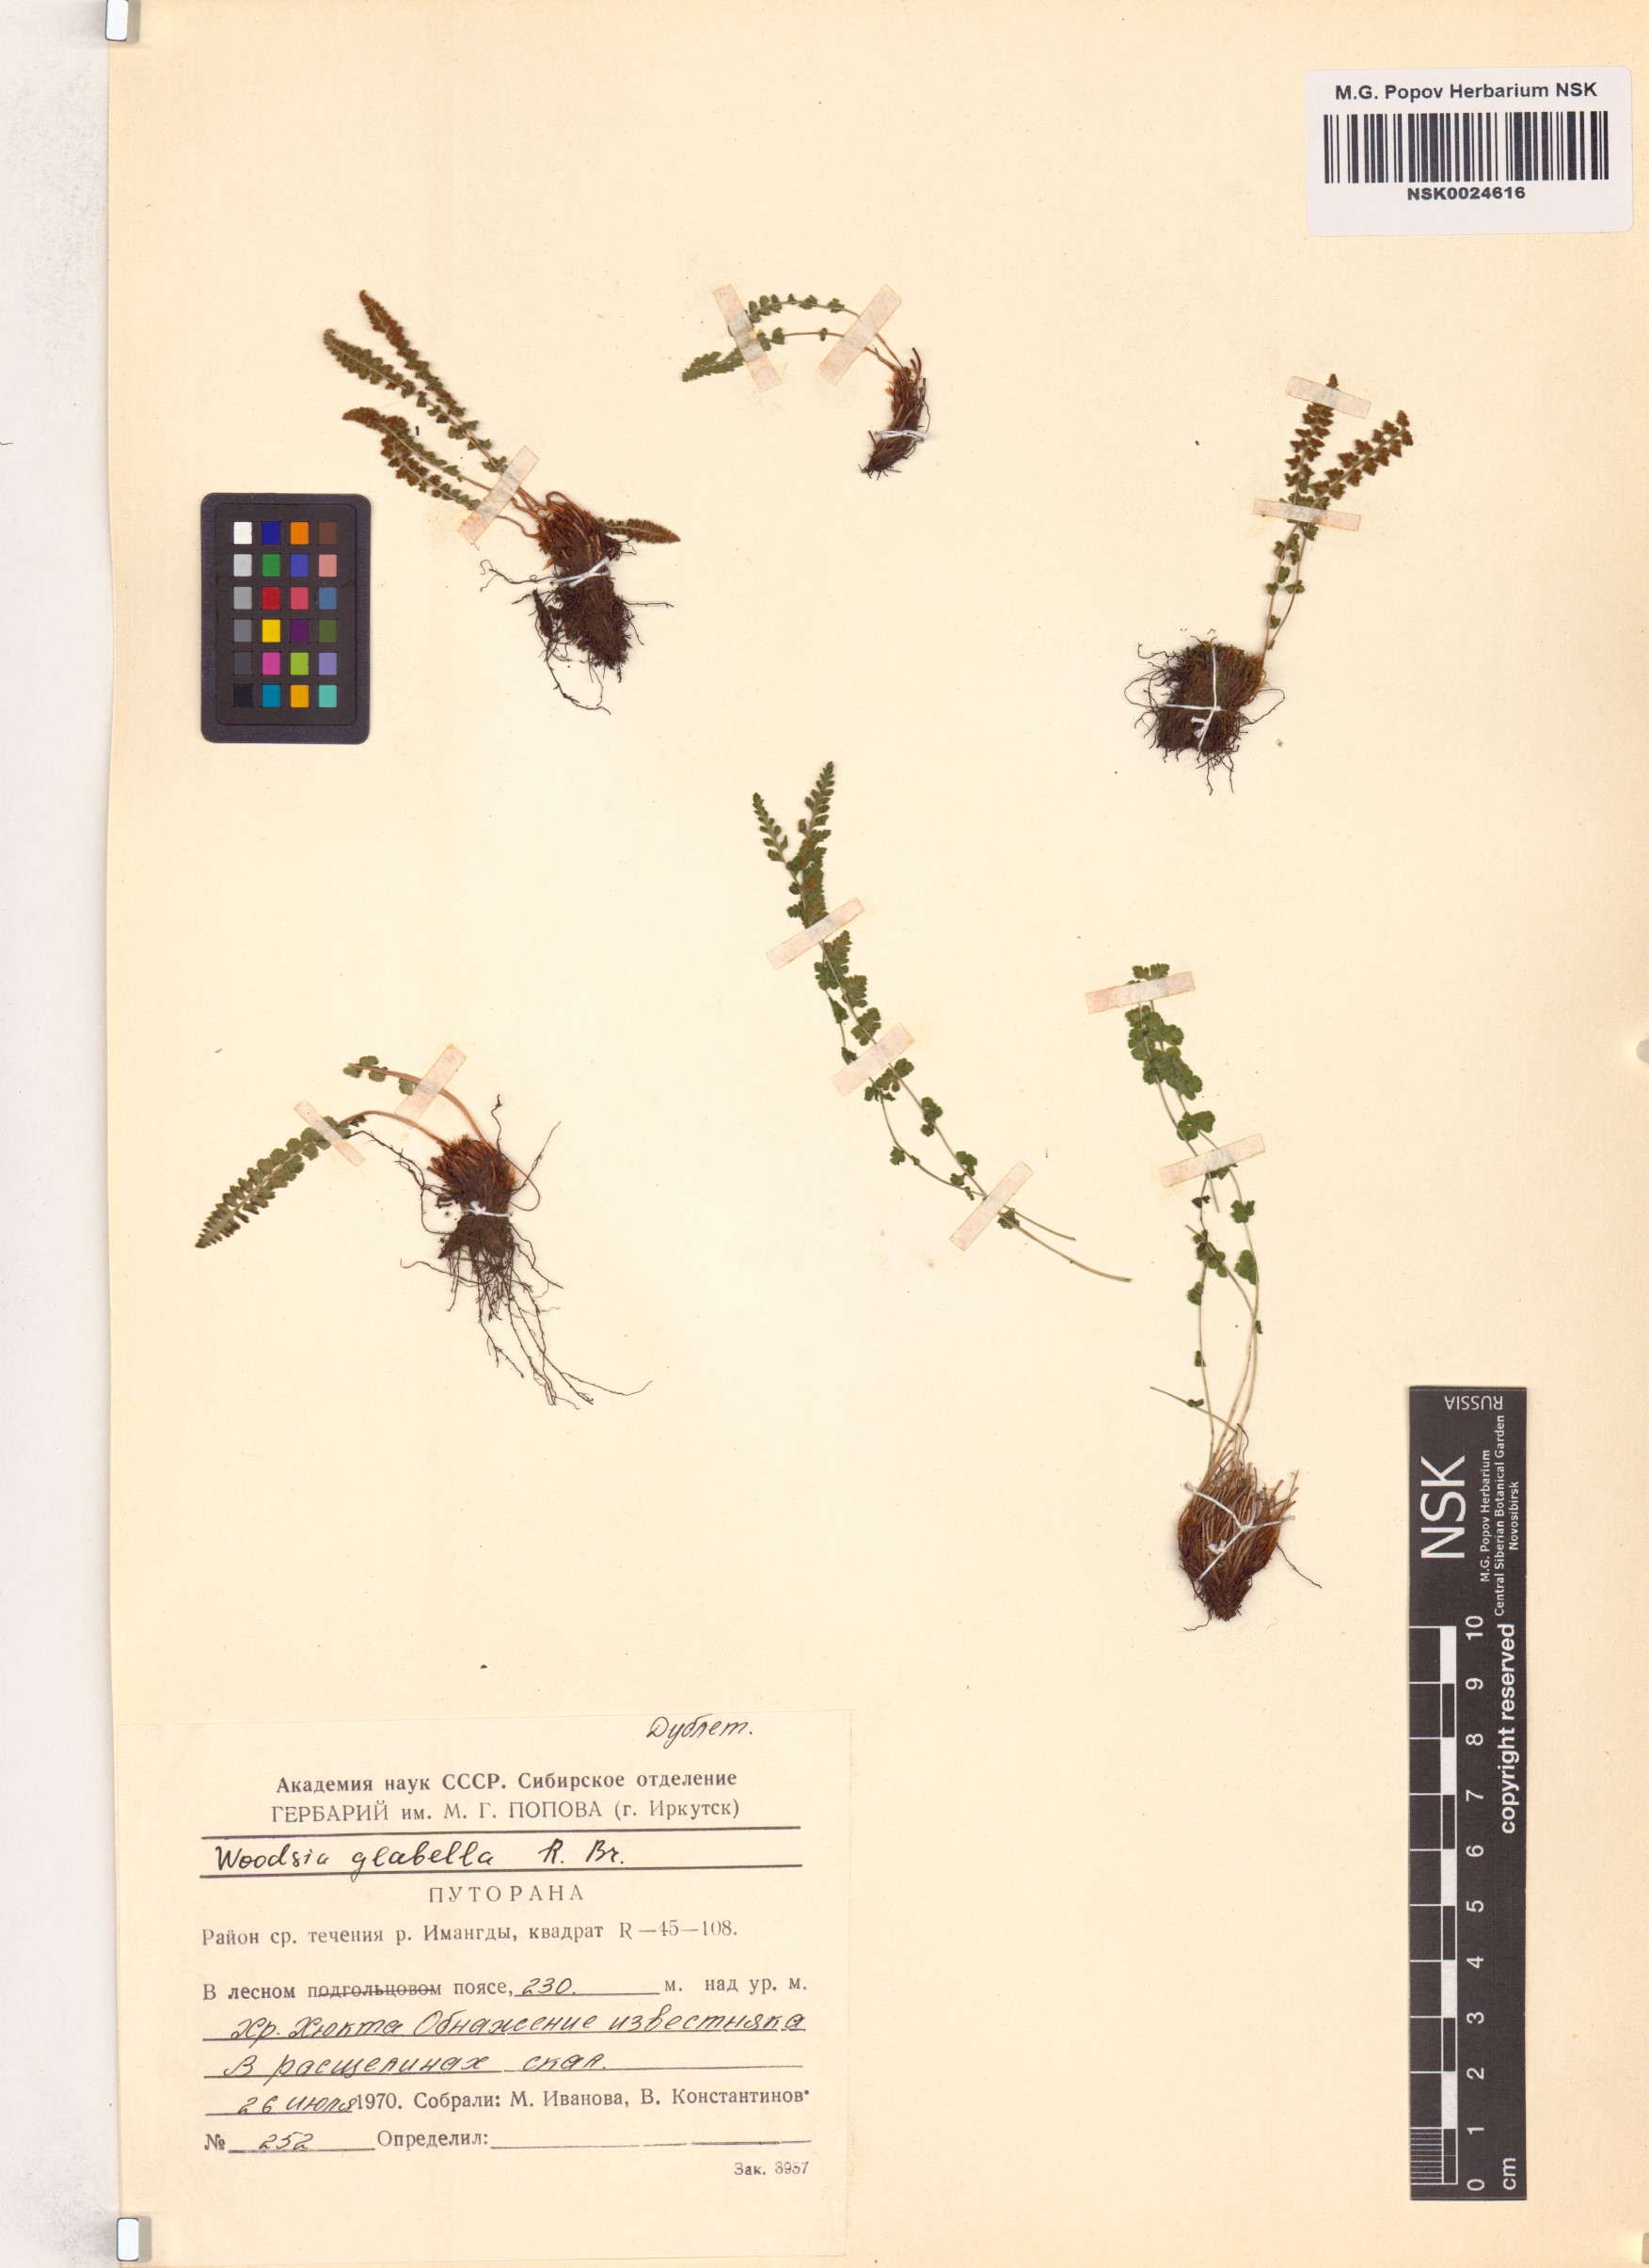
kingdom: Plantae
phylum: Tracheophyta
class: Polypodiopsida
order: Polypodiales
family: Woodsiaceae
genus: Woodsia
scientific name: Woodsia glabella
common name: Smooth woodsia
